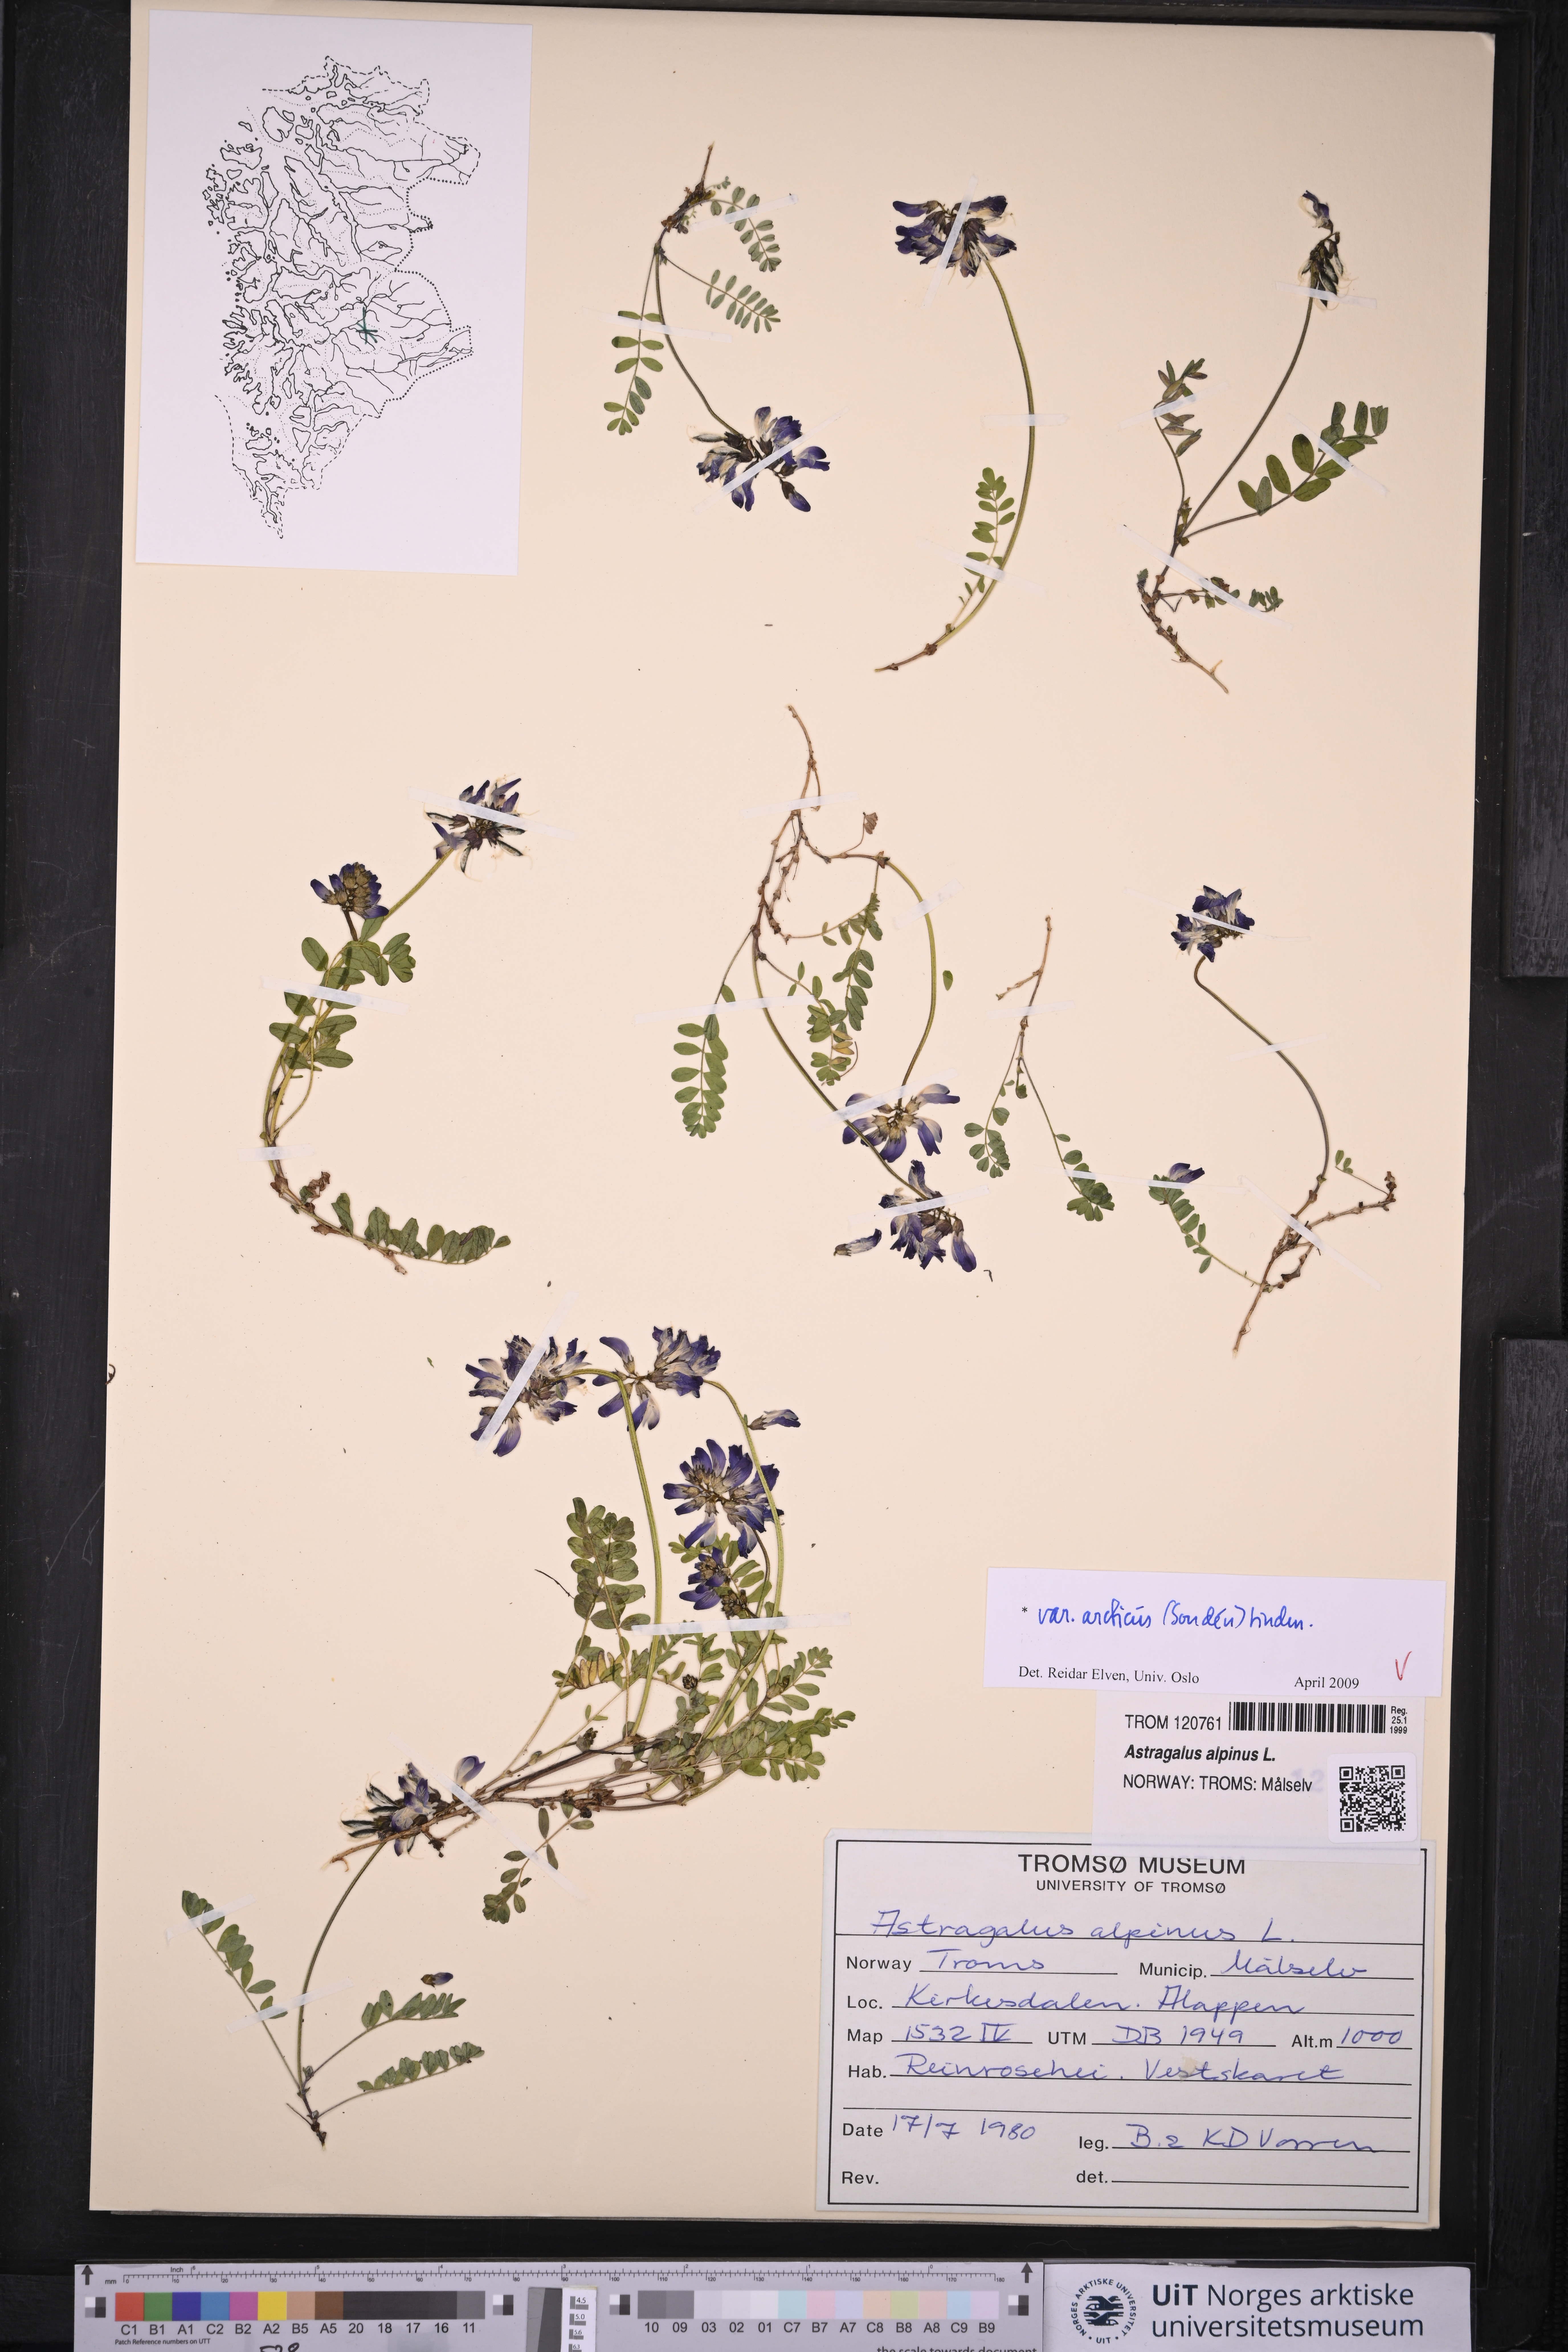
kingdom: Plantae
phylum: Tracheophyta
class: Magnoliopsida
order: Fabales
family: Fabaceae
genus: Astragalus
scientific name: Astragalus norvegicus
